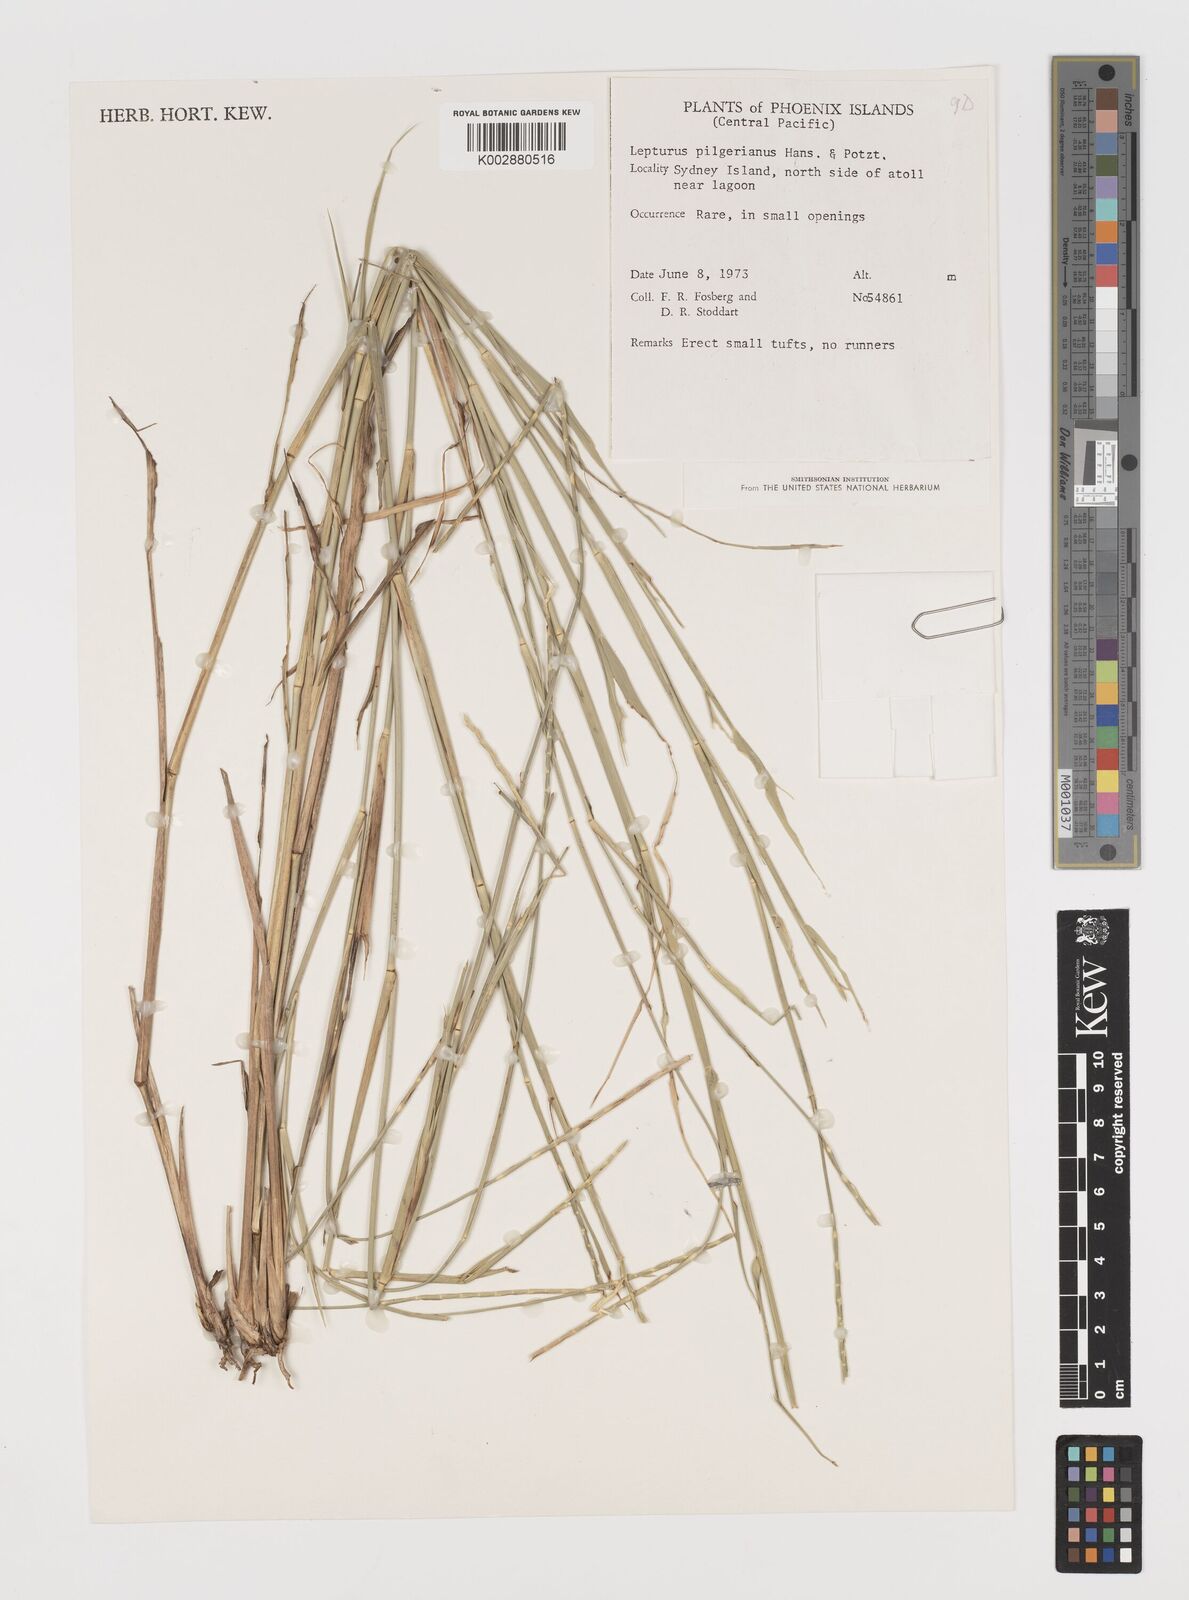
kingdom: Plantae
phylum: Tracheophyta
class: Liliopsida
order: Poales
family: Poaceae
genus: Lepturus
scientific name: Lepturus repens
